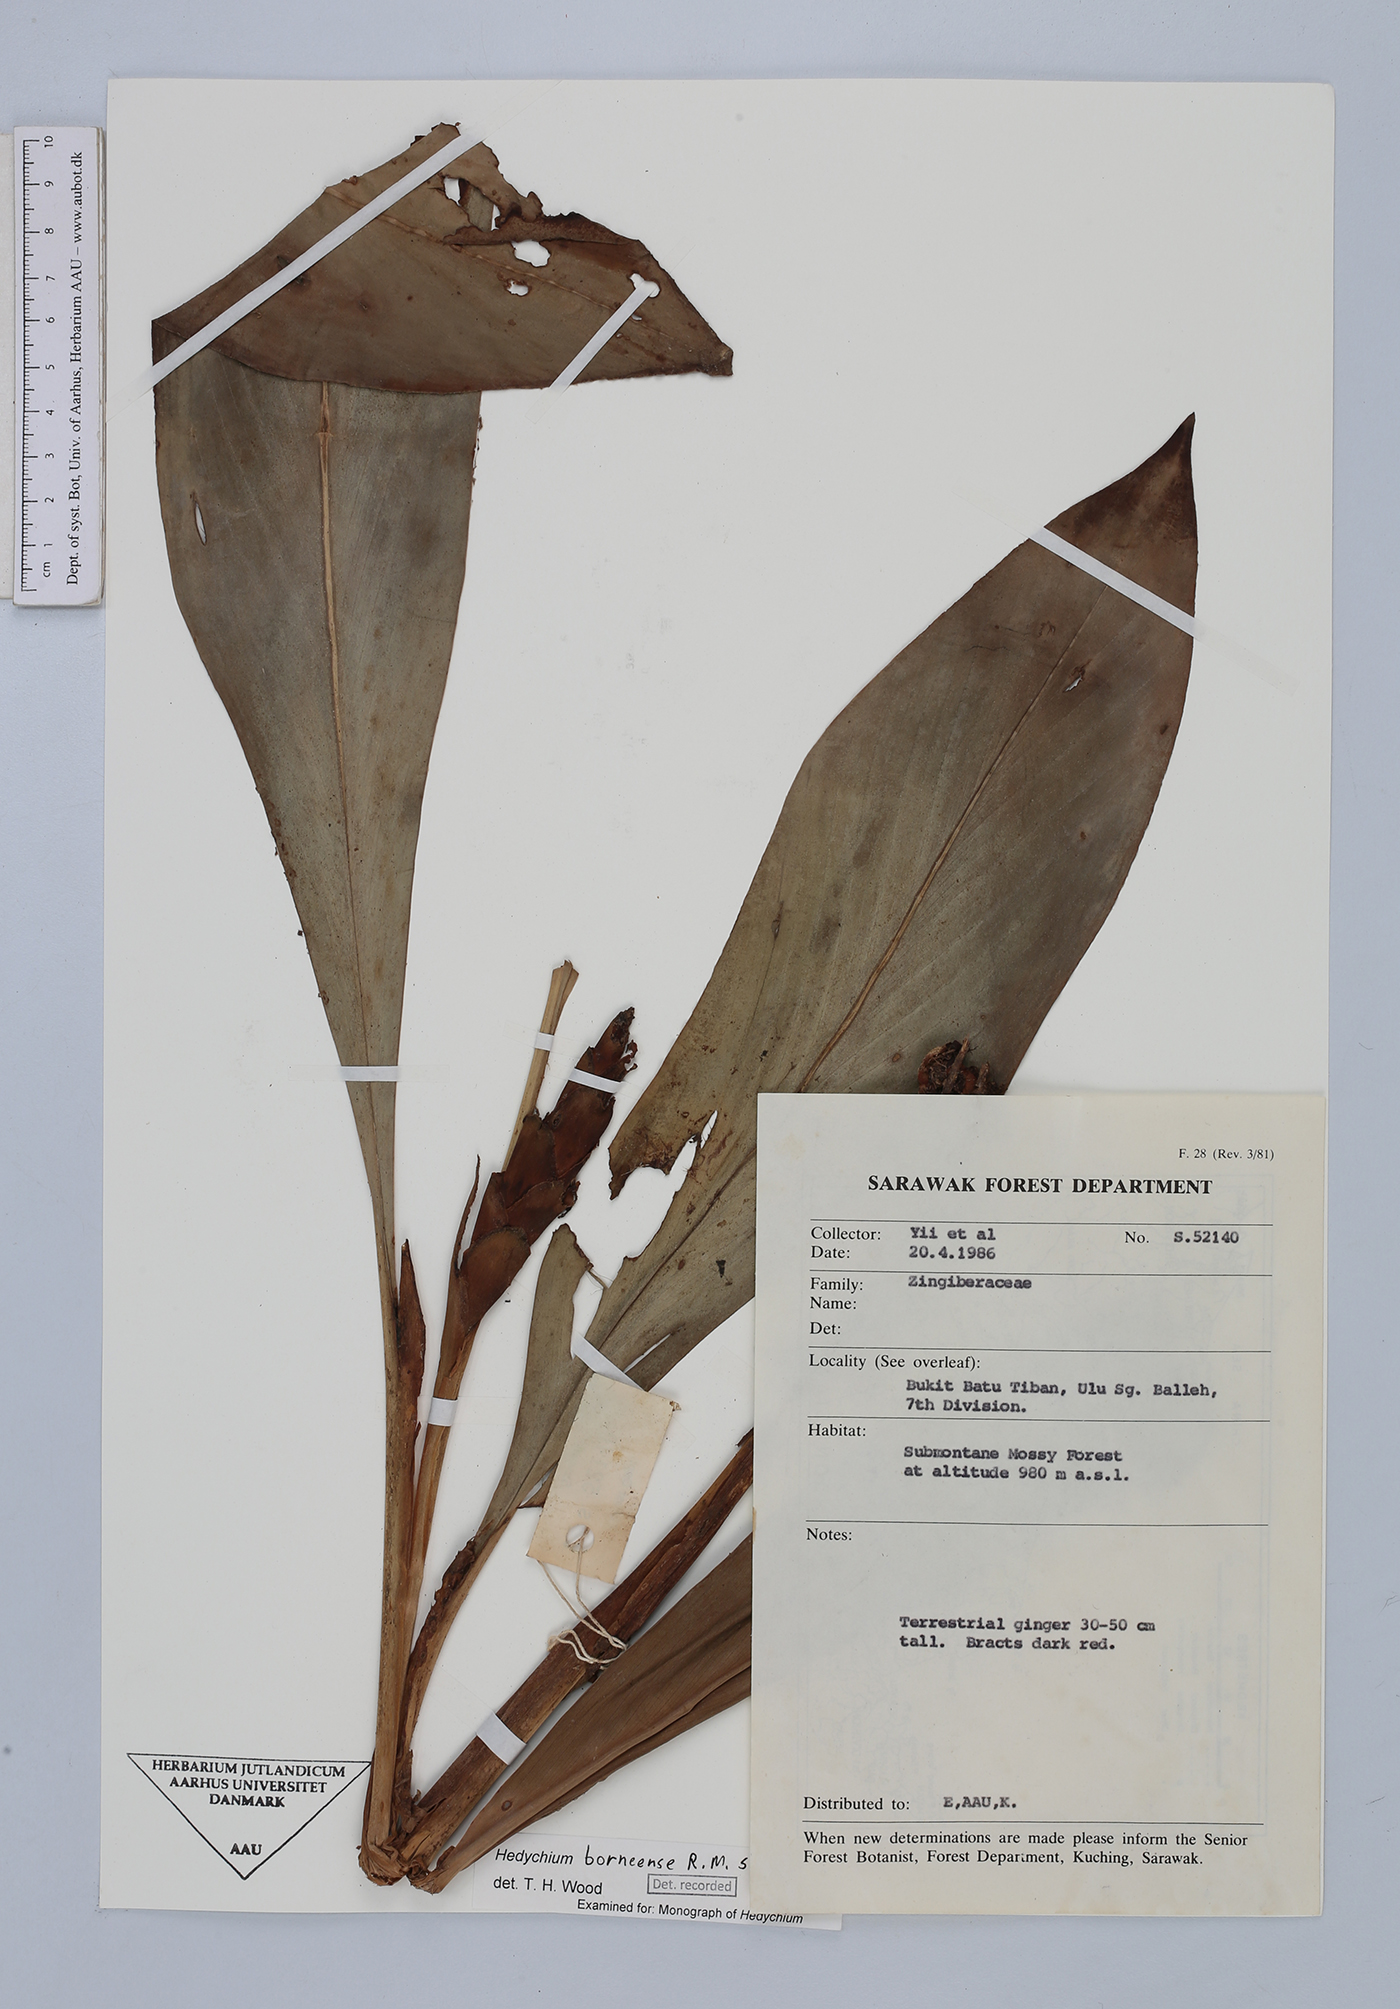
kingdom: Plantae
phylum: Tracheophyta
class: Liliopsida
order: Zingiberales
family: Zingiberaceae
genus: Hedychium
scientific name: Hedychium borneense
